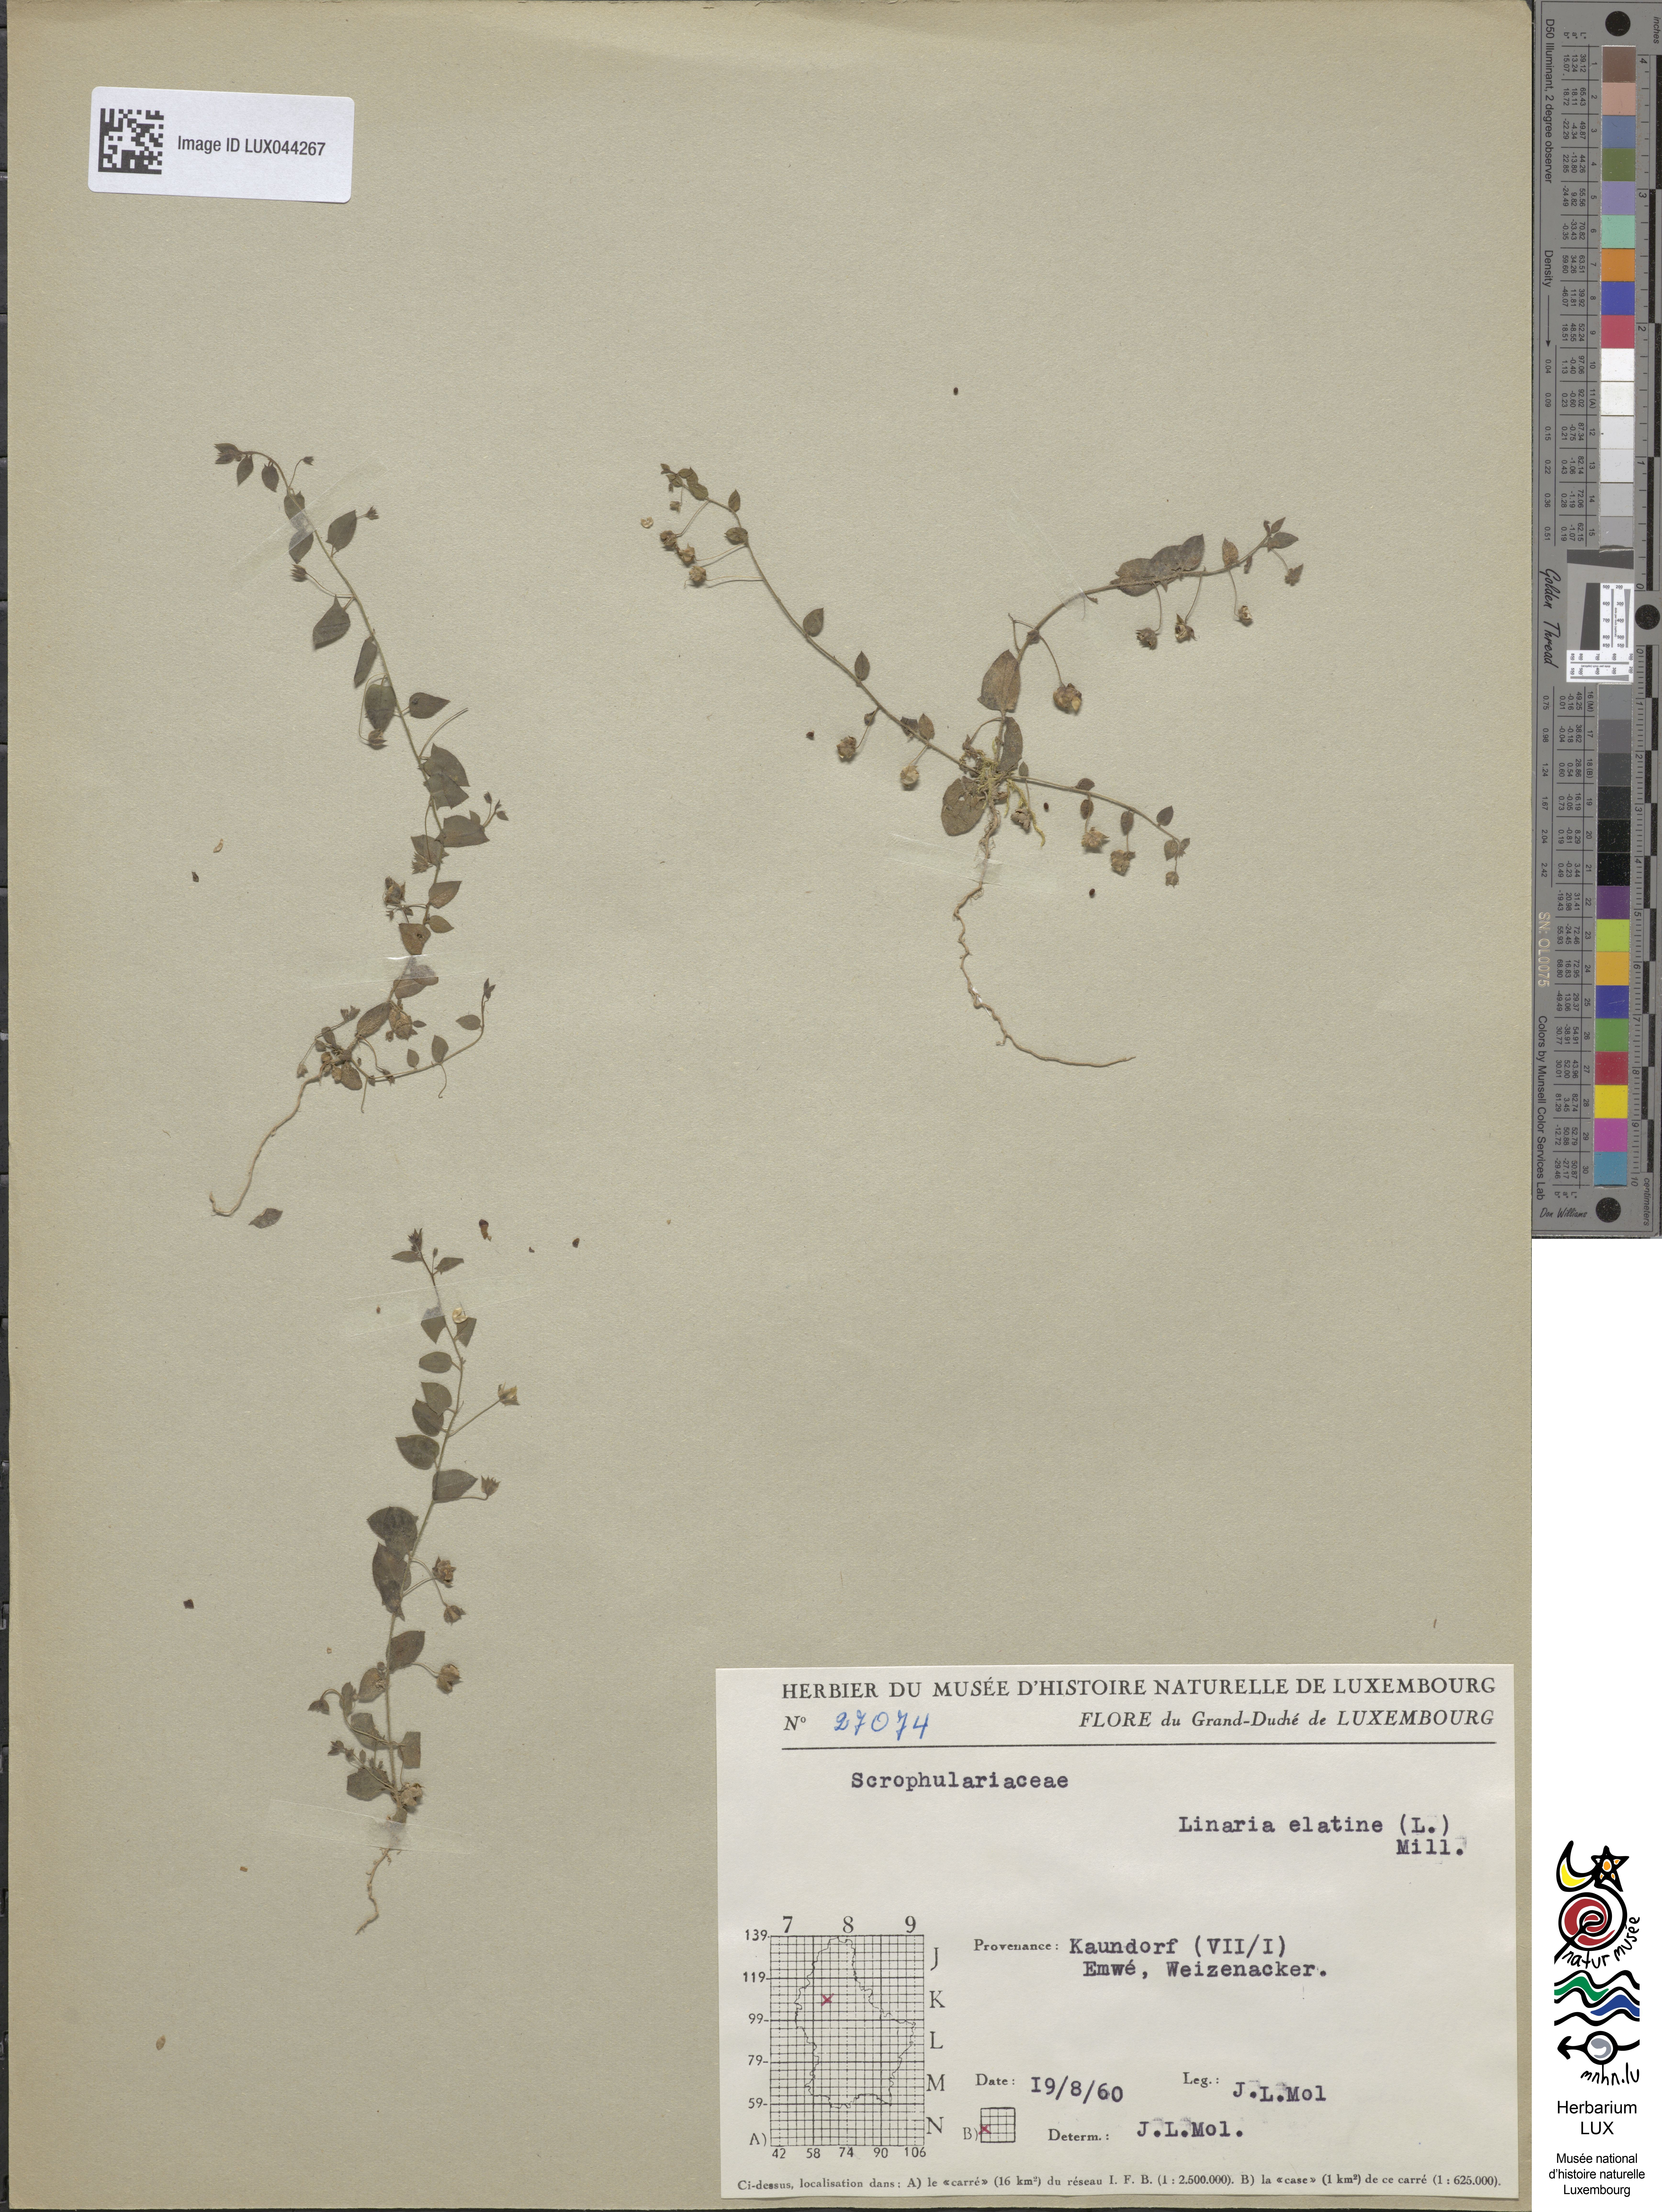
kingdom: Plantae
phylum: Tracheophyta
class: Magnoliopsida
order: Lamiales
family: Plantaginaceae
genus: Kickxia
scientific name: Kickxia elatine
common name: Sharp-leaved fluellen
